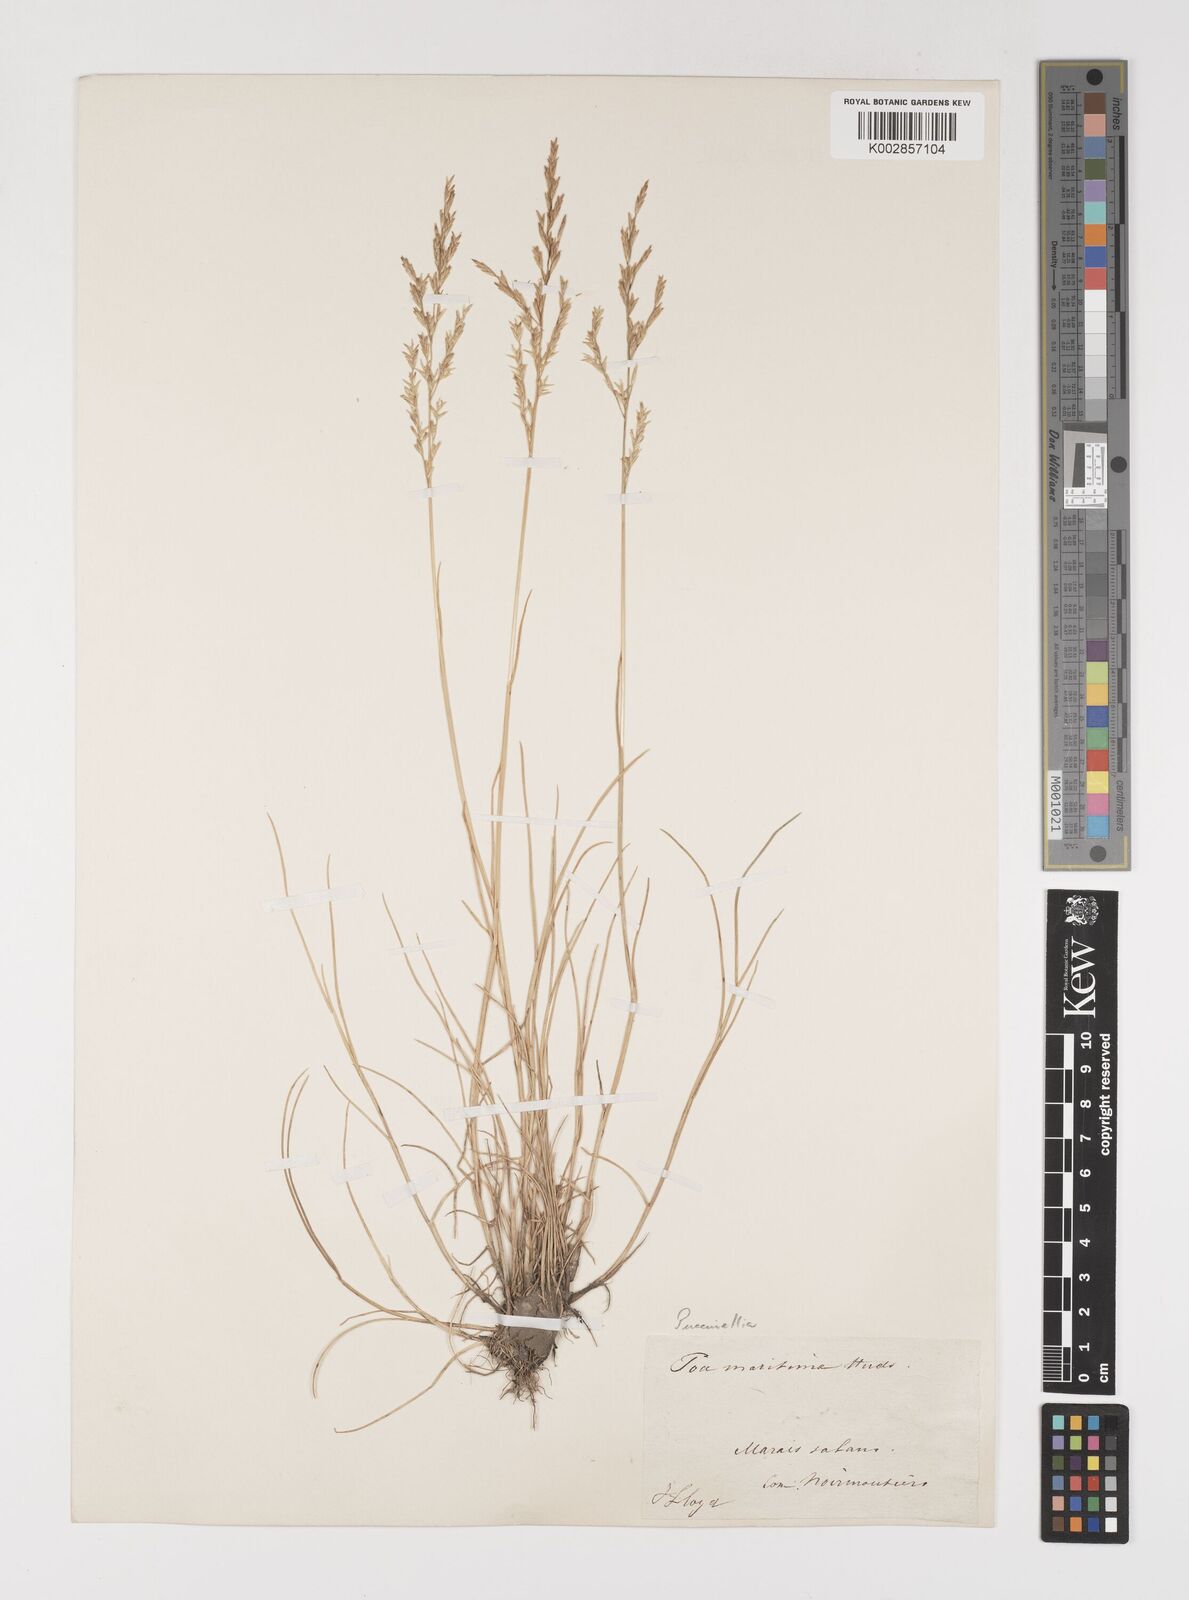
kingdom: Plantae
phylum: Tracheophyta
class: Liliopsida
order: Poales
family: Poaceae
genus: Puccinellia
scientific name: Puccinellia maritima
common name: Common saltmarsh grass
